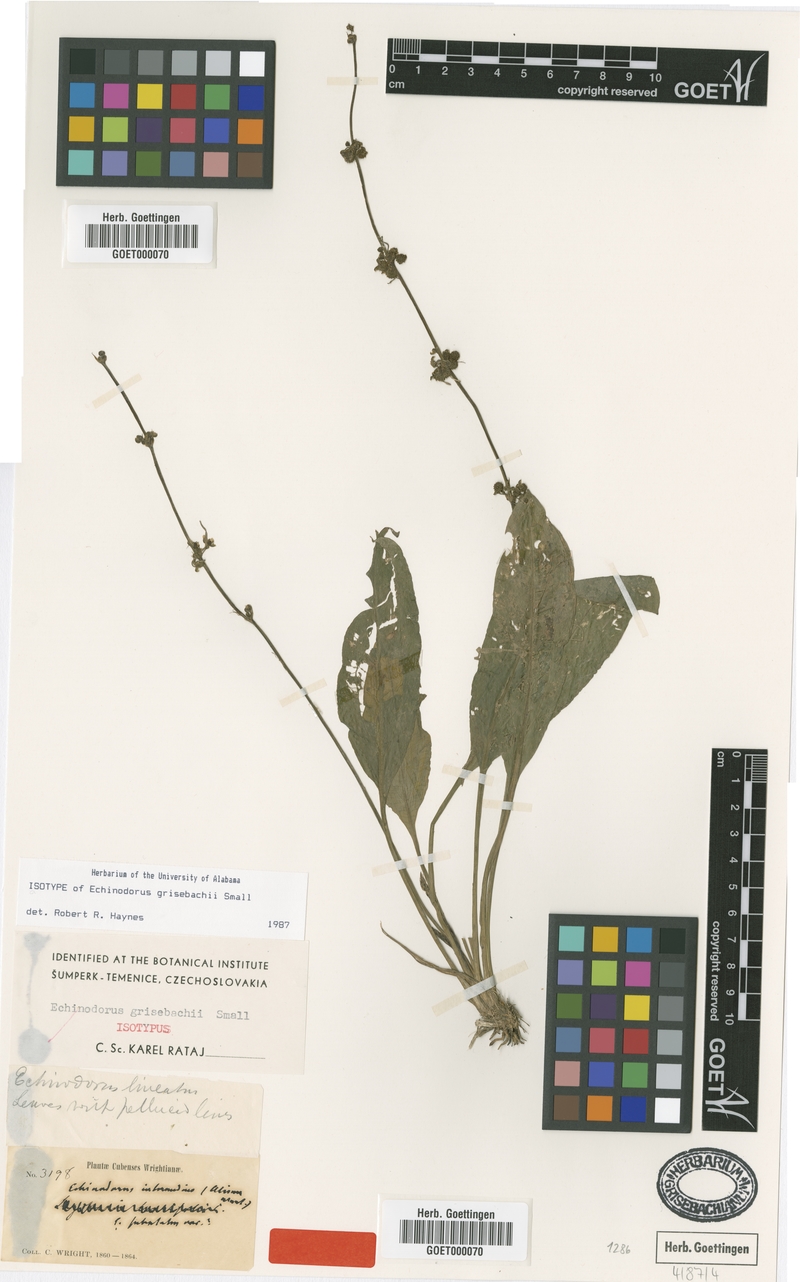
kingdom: Plantae
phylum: Tracheophyta
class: Liliopsida
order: Alismatales
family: Alismataceae
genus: Aquarius
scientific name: Aquarius grisebachii
